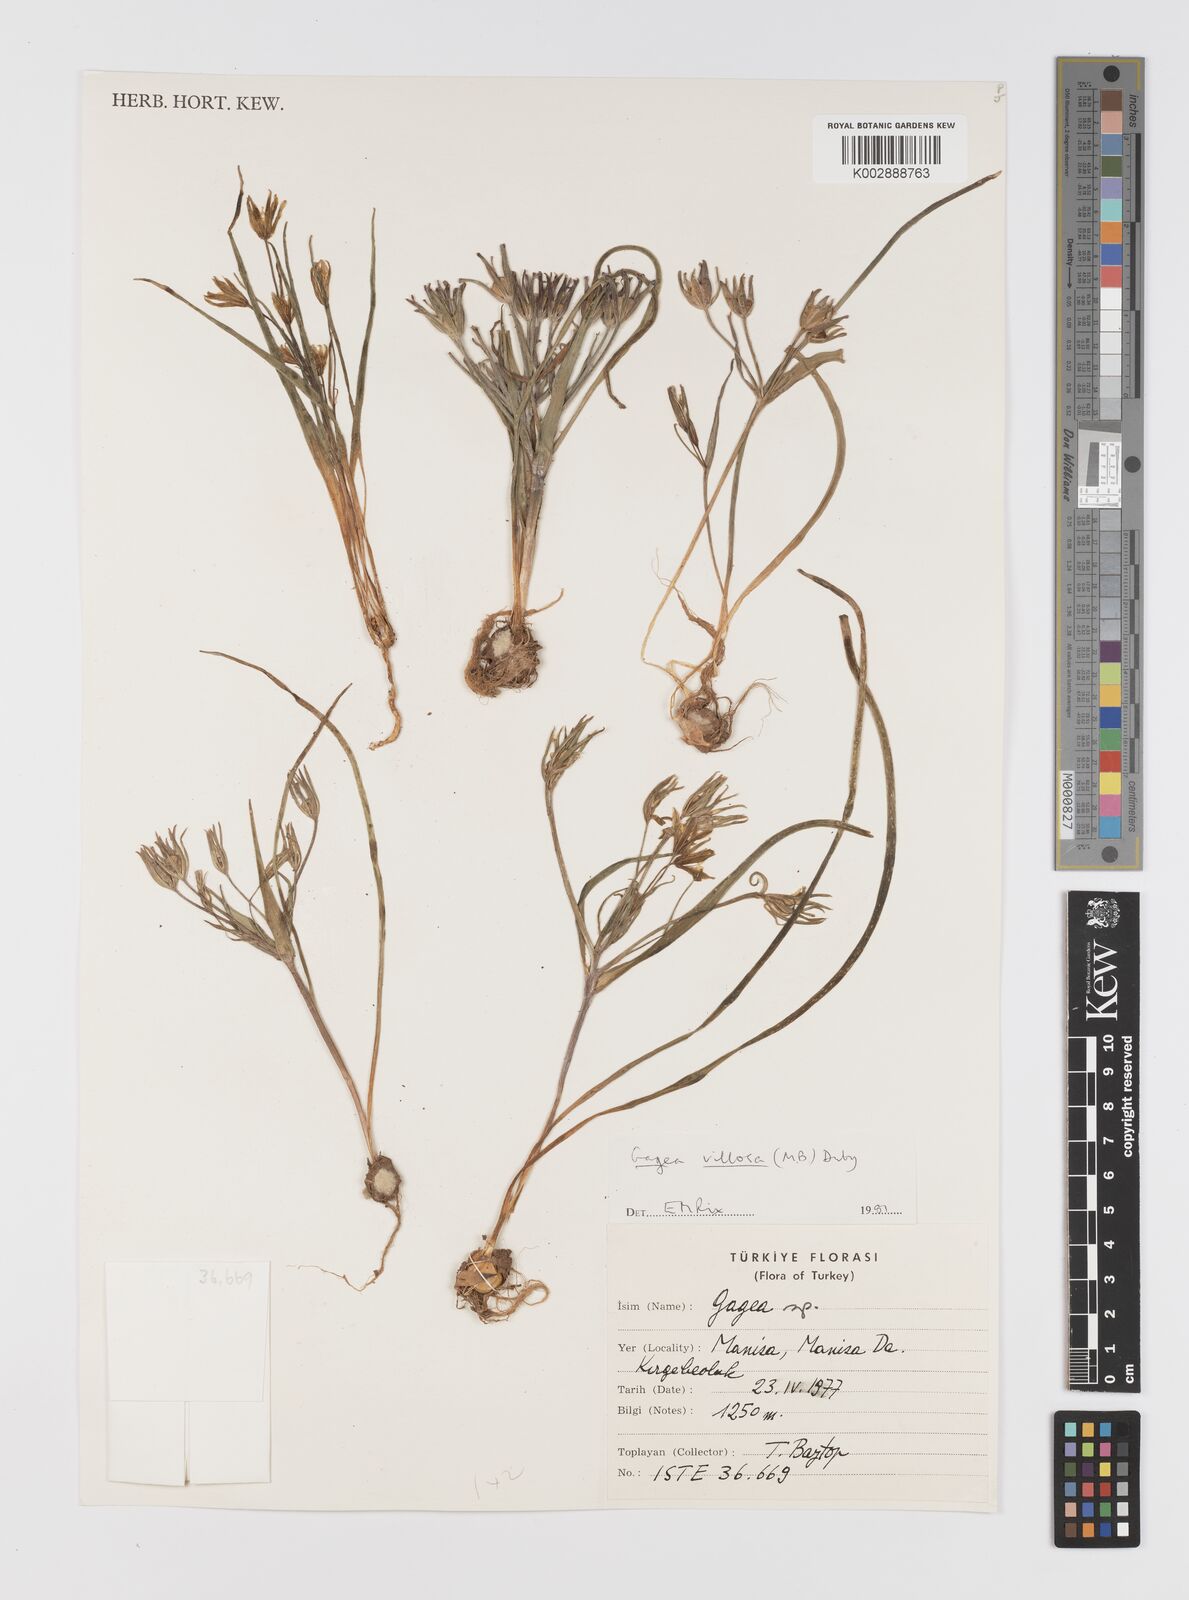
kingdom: Plantae
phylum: Tracheophyta
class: Liliopsida
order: Liliales
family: Liliaceae
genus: Gagea
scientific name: Gagea villosa
